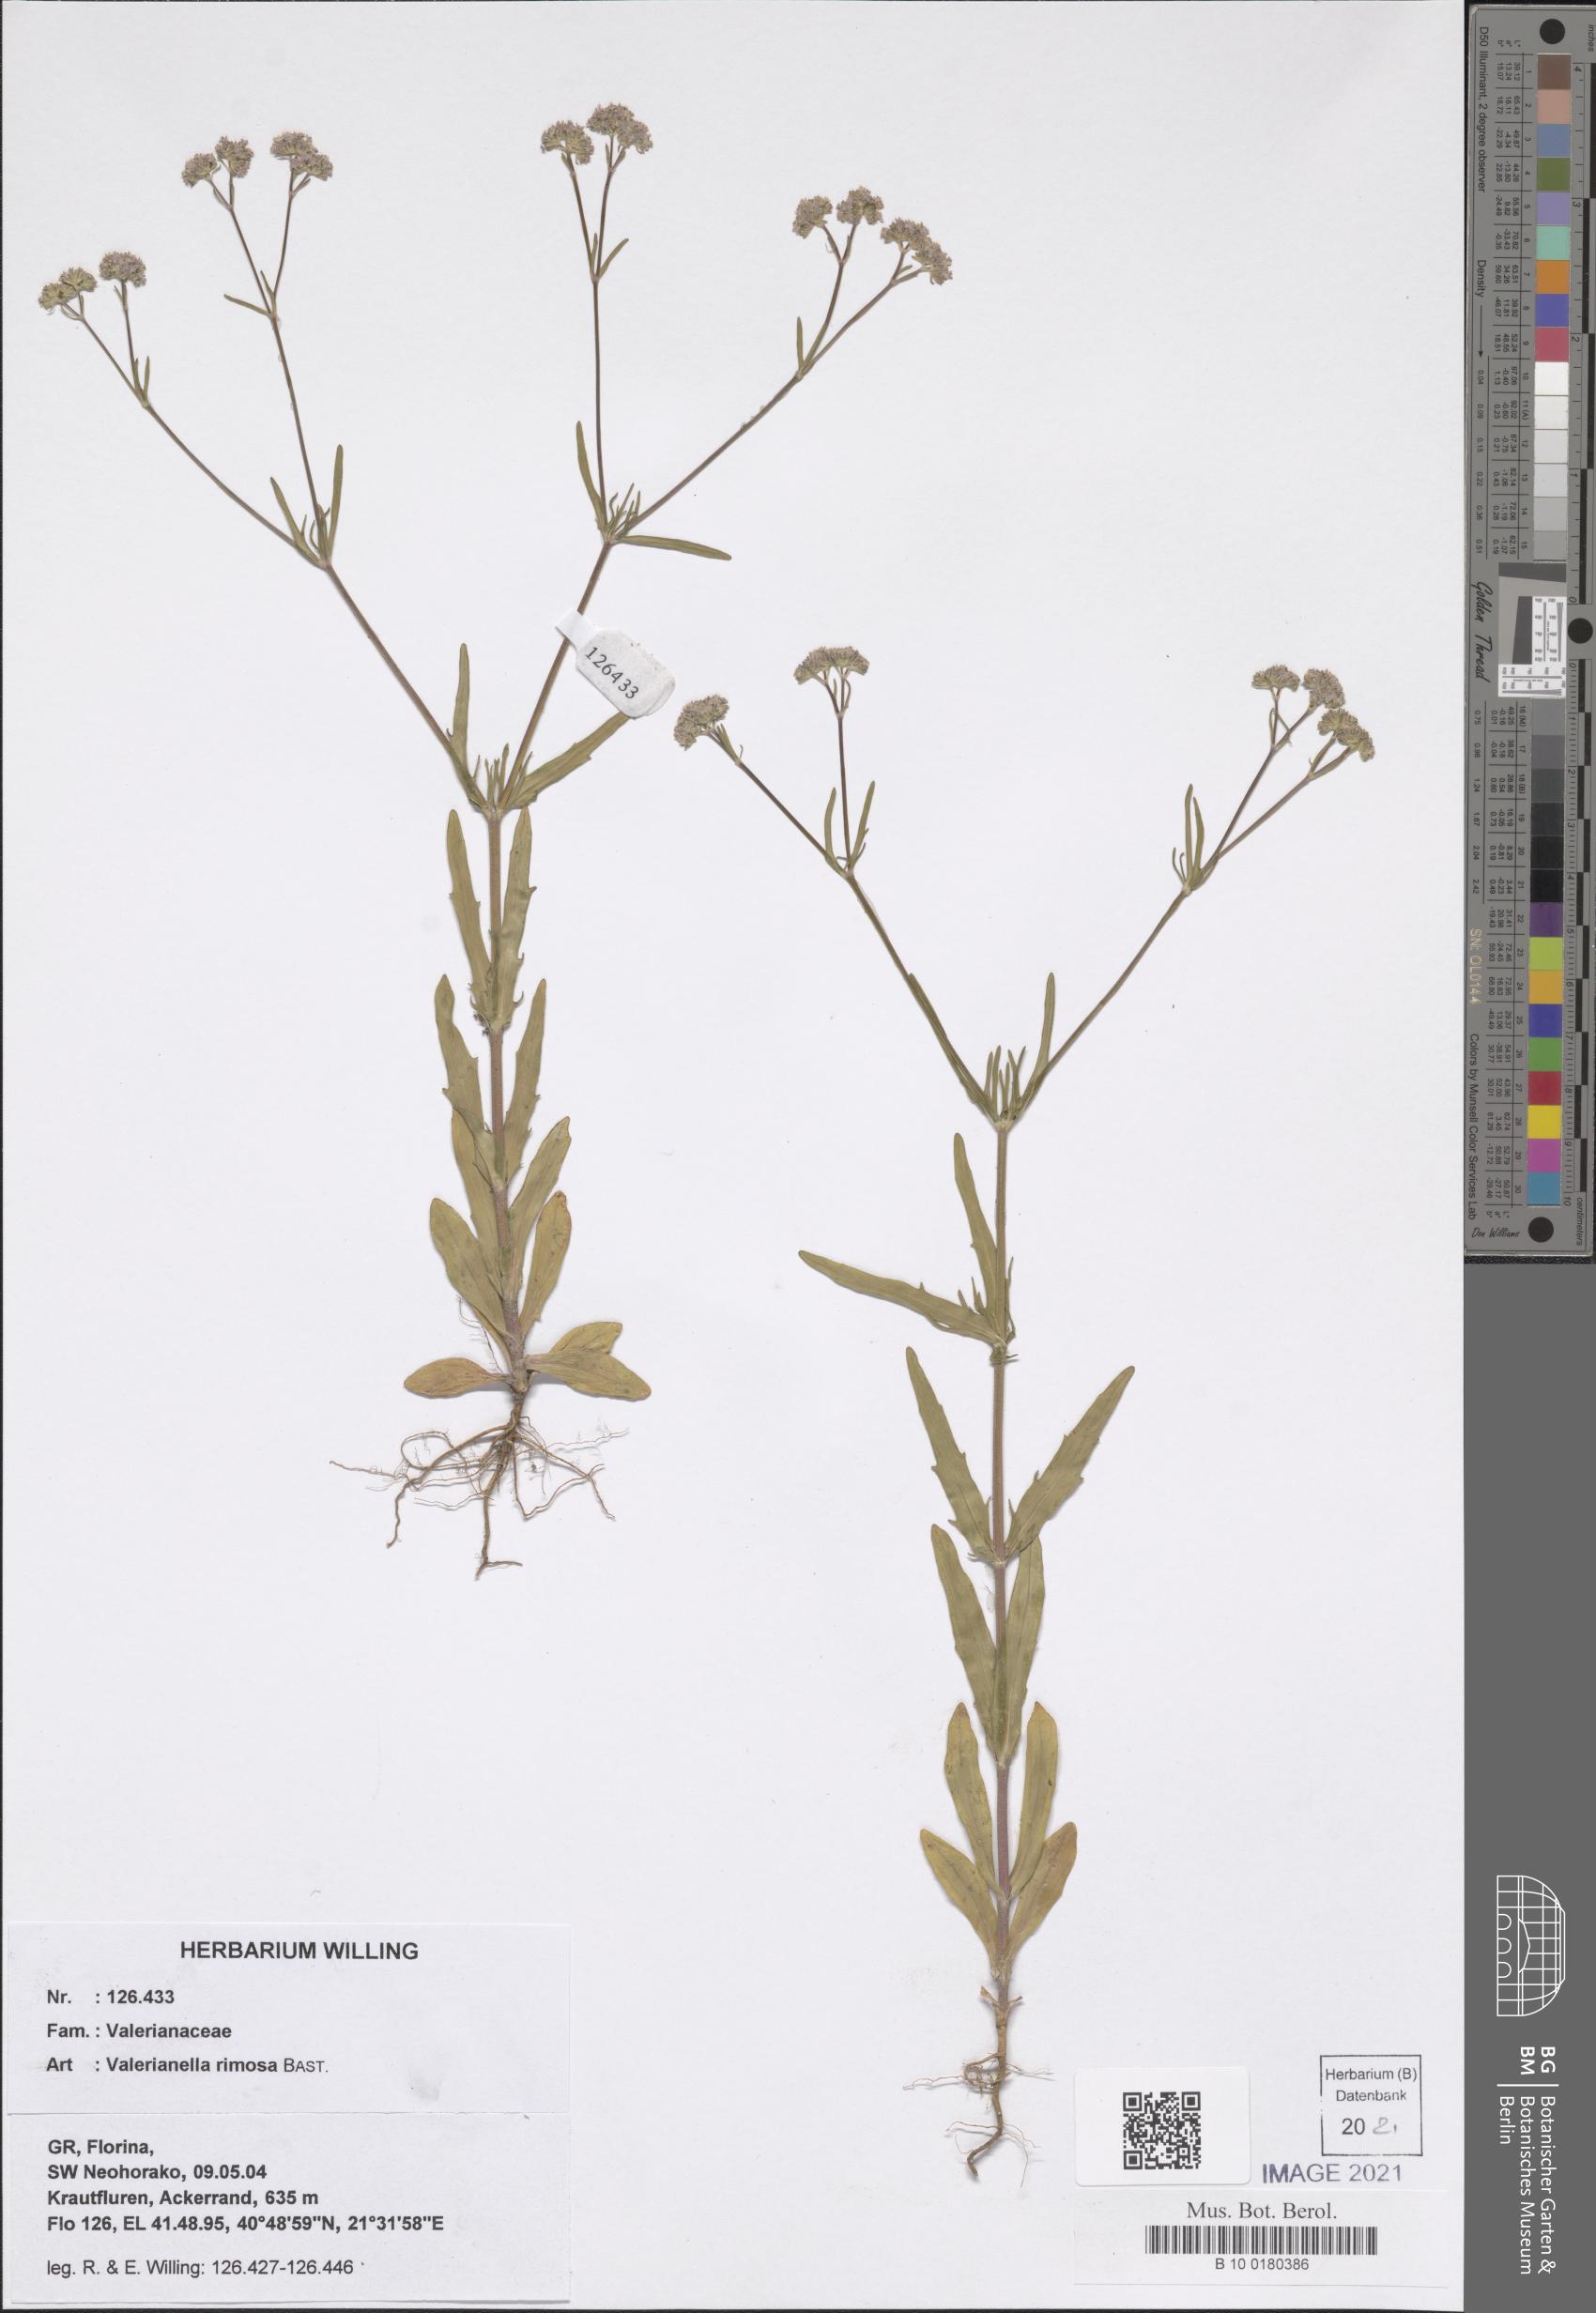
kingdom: Plantae
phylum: Tracheophyta
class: Magnoliopsida
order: Dipsacales
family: Caprifoliaceae
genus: Valerianella
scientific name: Valerianella rimosa
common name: Broad-fruited cornsalad
